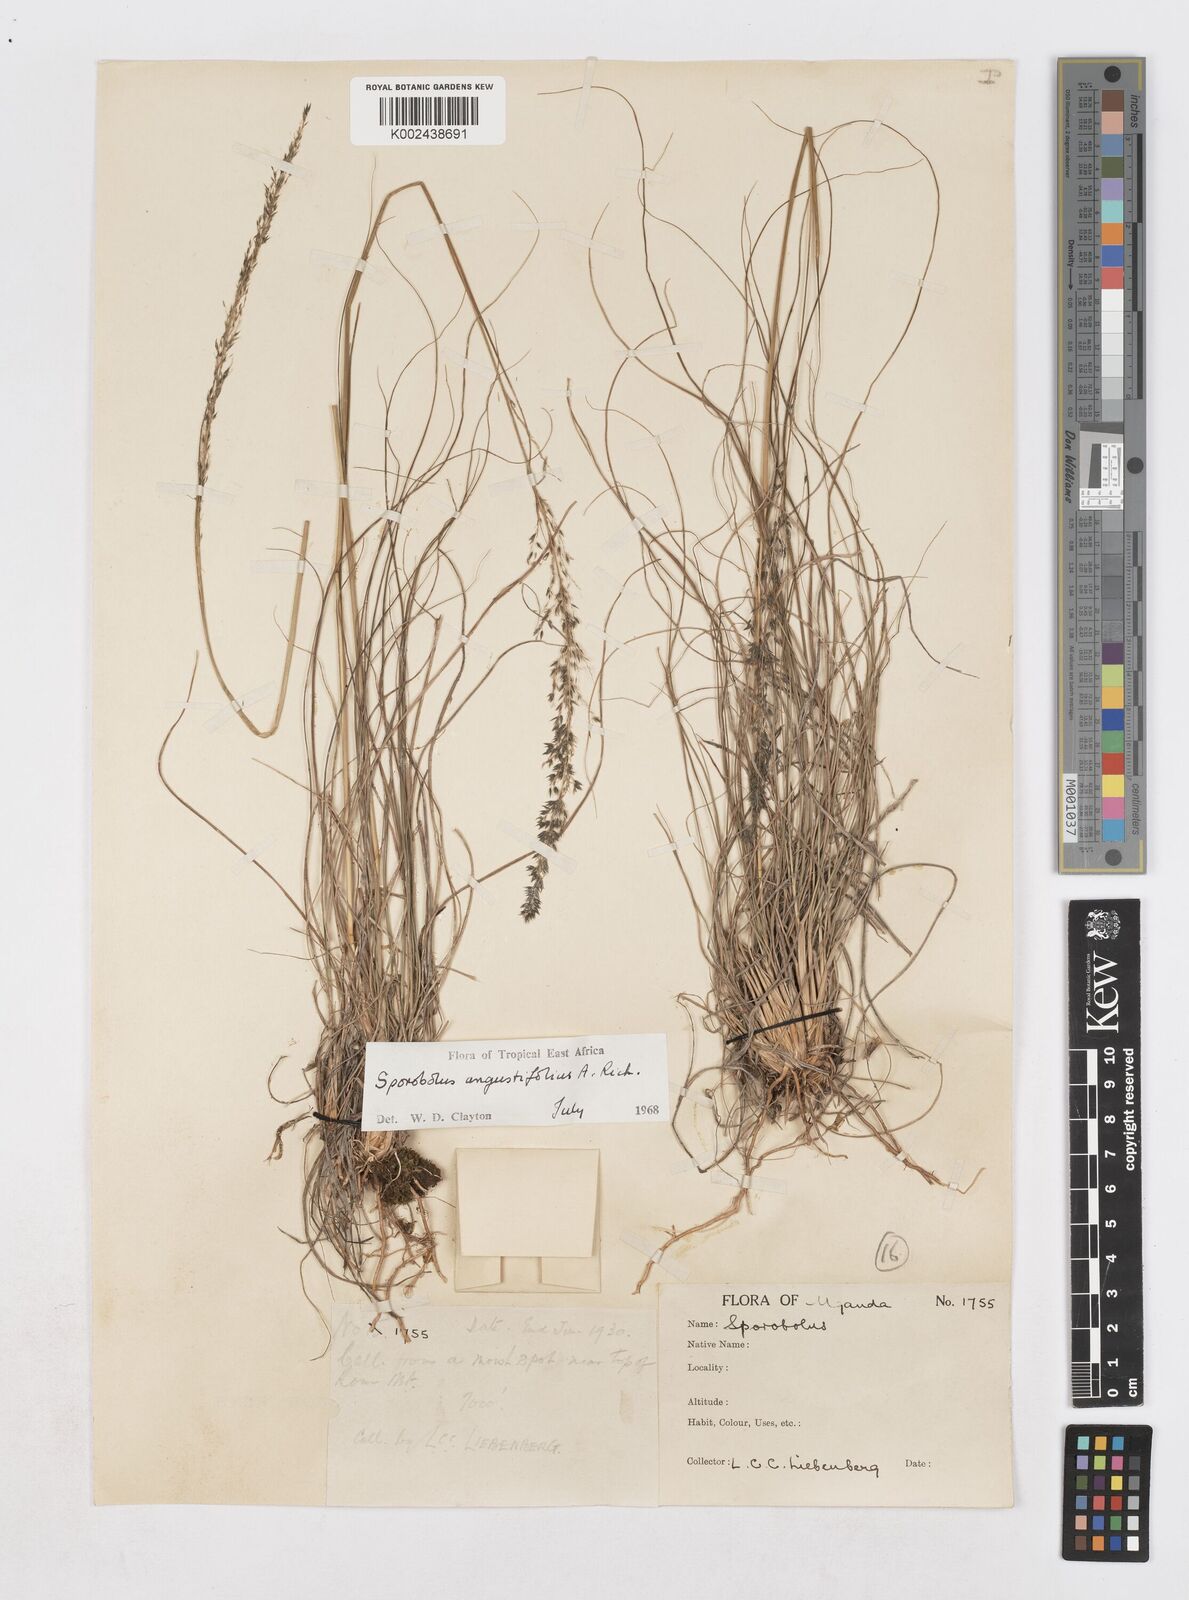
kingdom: Plantae
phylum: Tracheophyta
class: Liliopsida
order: Poales
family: Poaceae
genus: Sporobolus
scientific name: Sporobolus angustifolius
